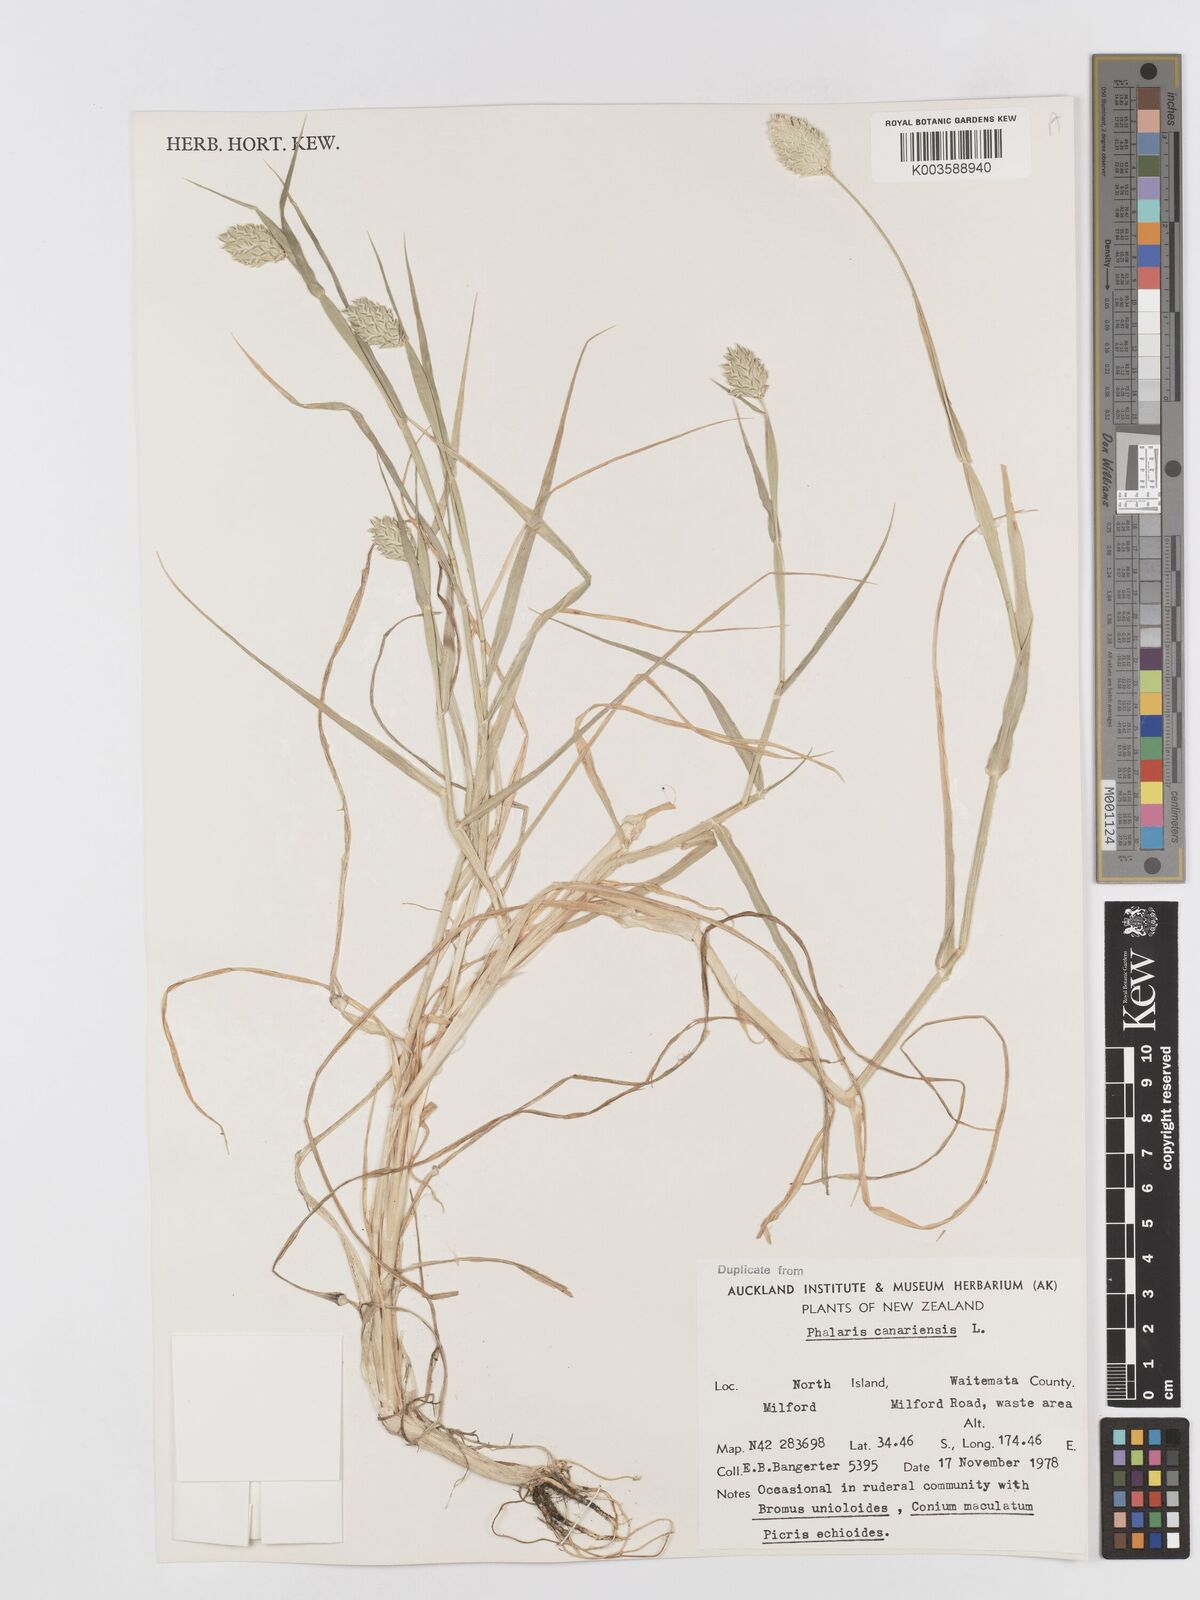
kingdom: Plantae
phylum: Tracheophyta
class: Liliopsida
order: Poales
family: Poaceae
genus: Phalaris
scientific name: Phalaris canariensis
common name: Annual canarygrass
